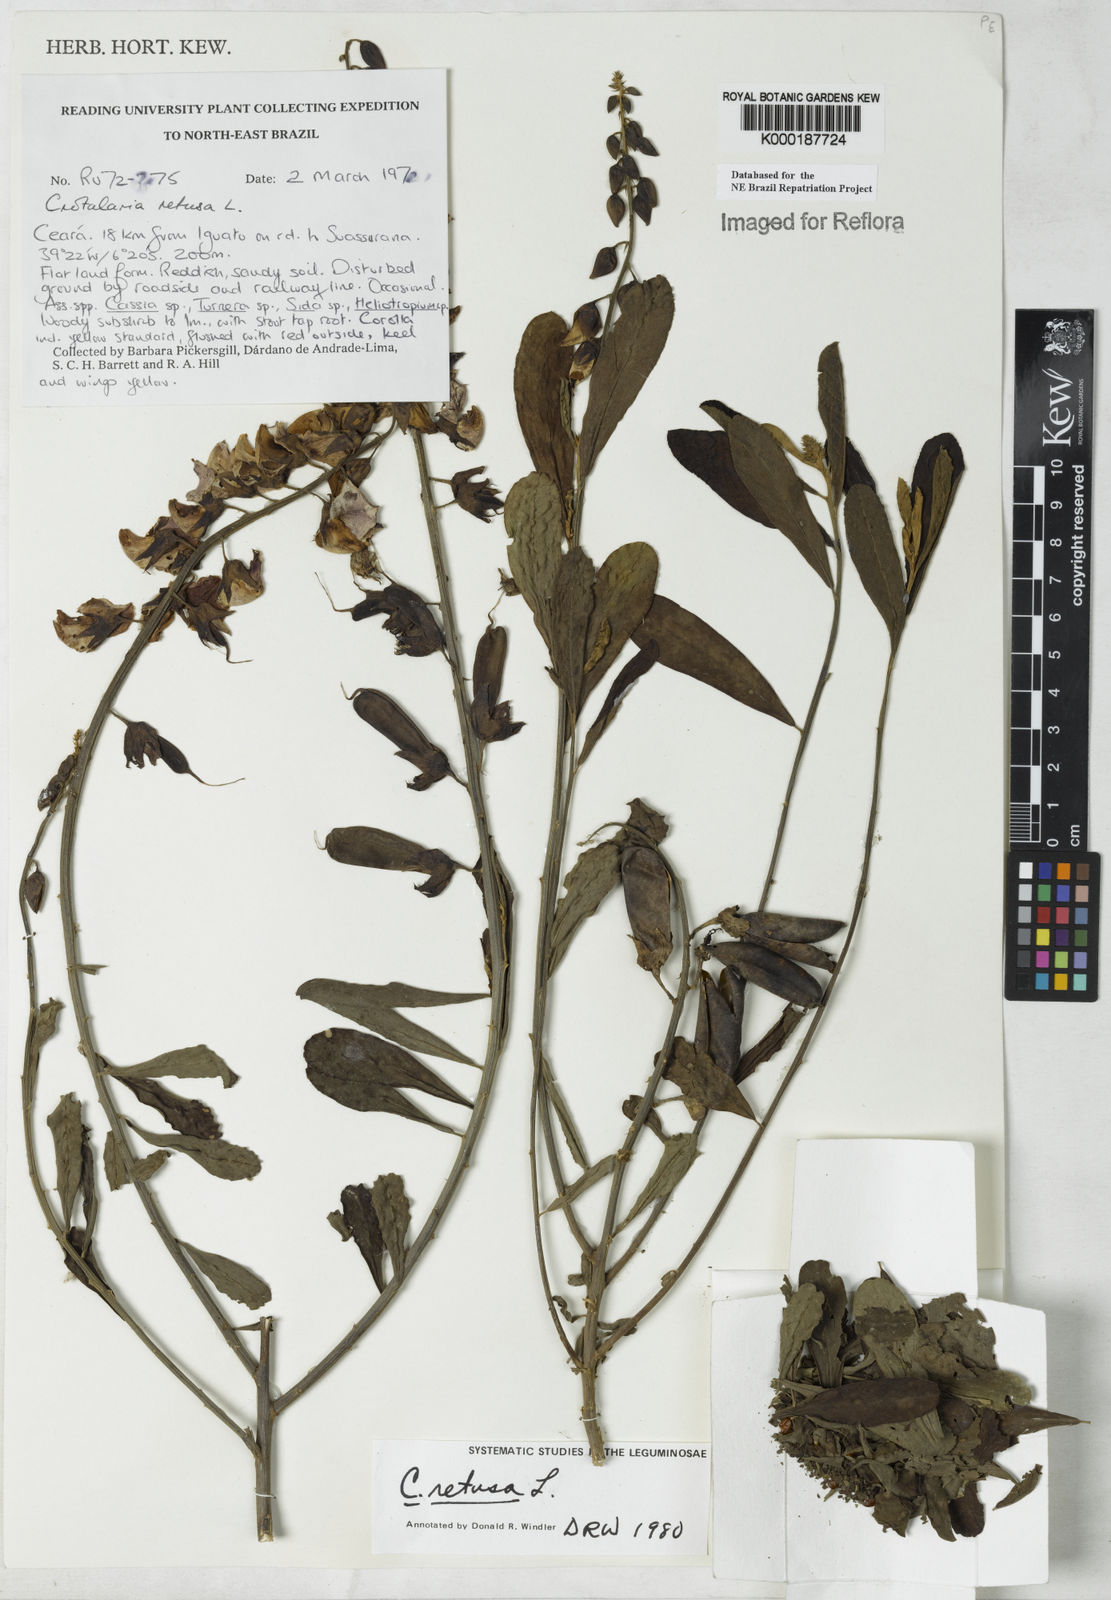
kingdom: Plantae
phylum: Tracheophyta
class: Magnoliopsida
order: Fabales
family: Fabaceae
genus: Crotalaria
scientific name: Crotalaria retusa
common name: Rattleweed
